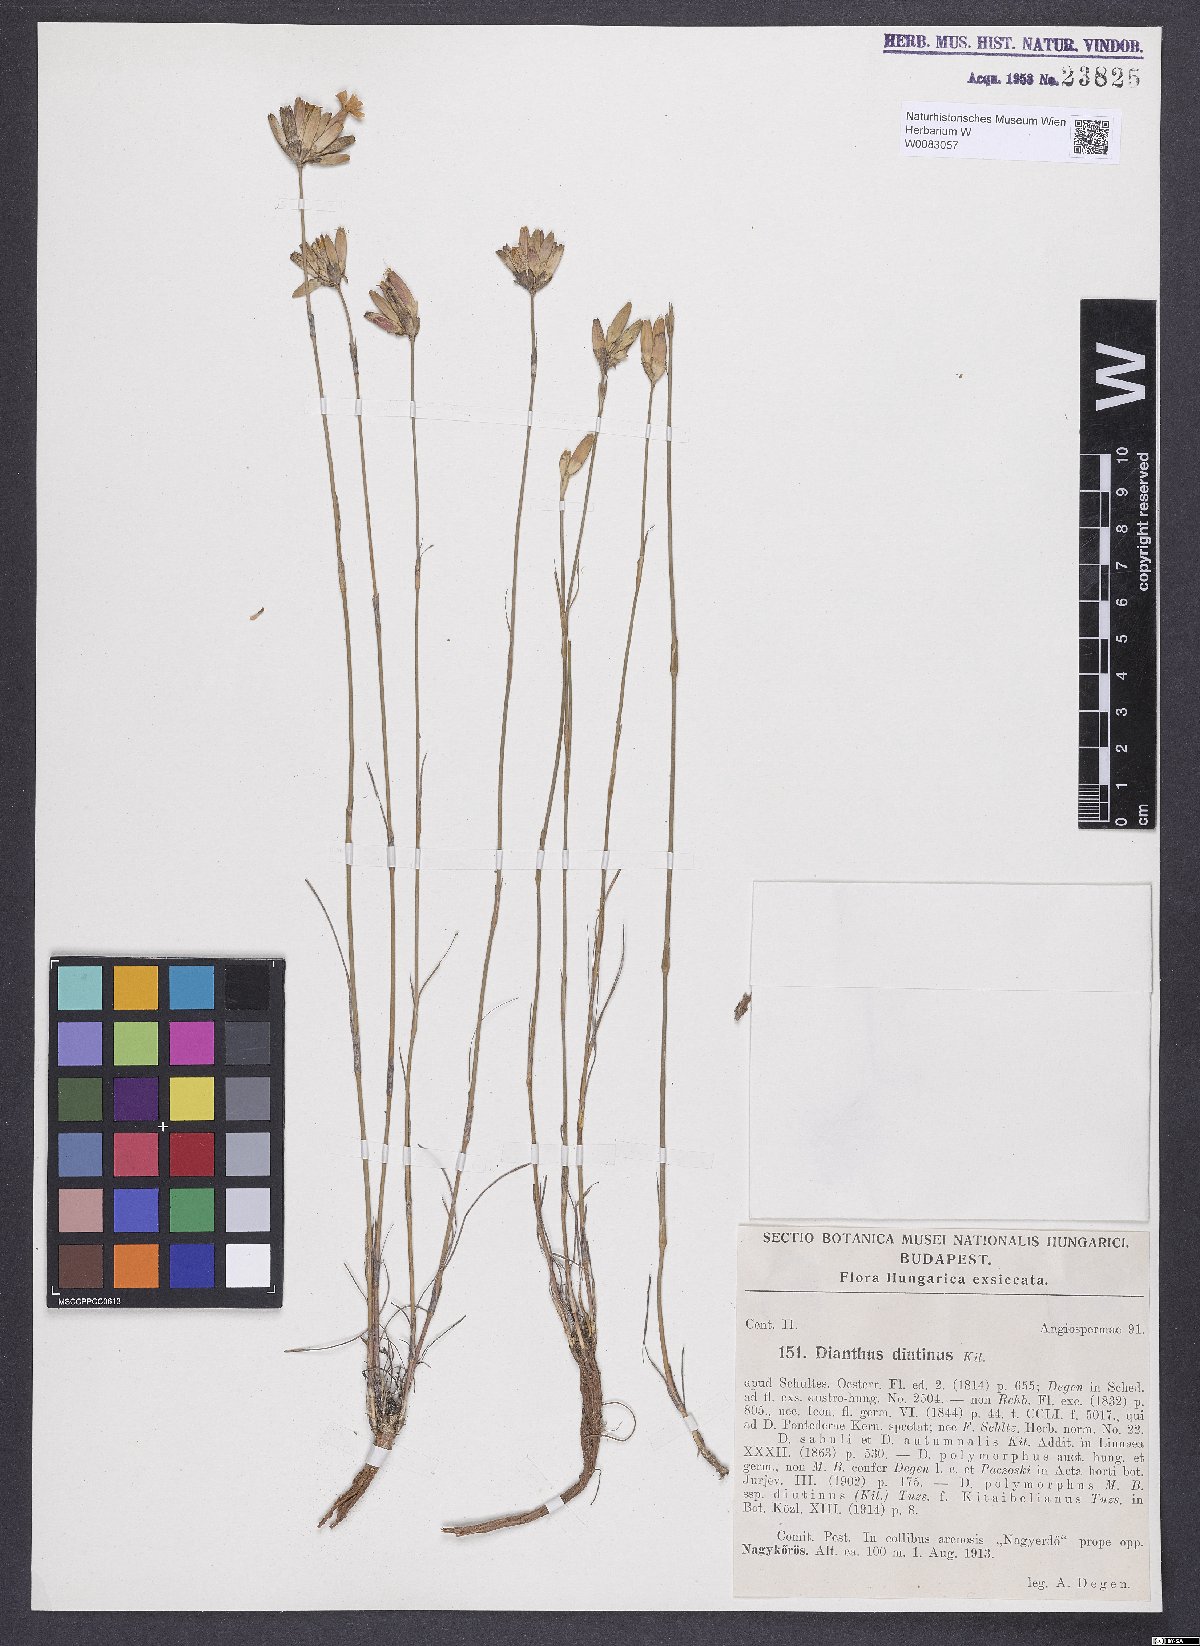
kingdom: Plantae
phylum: Tracheophyta
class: Magnoliopsida
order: Caryophyllales
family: Caryophyllaceae
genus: Dianthus
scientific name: Dianthus polymorphus
